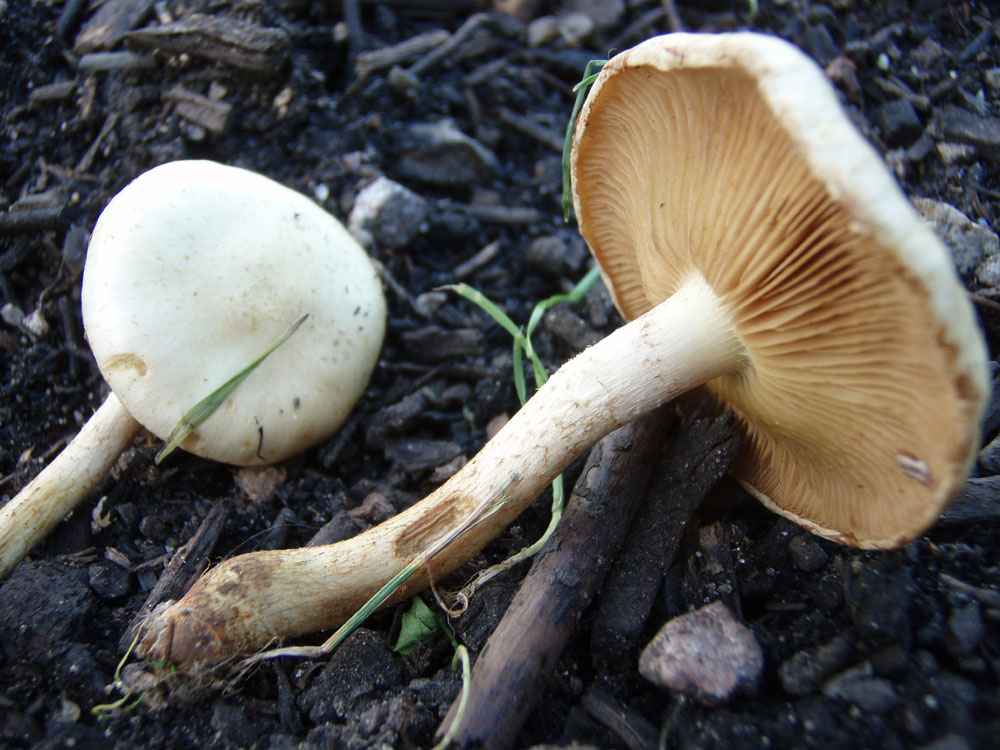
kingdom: Fungi
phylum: Basidiomycota
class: Agaricomycetes
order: Agaricales
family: Strophariaceae
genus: Pholiota
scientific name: Pholiota gummosa
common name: grøngul skælhat
